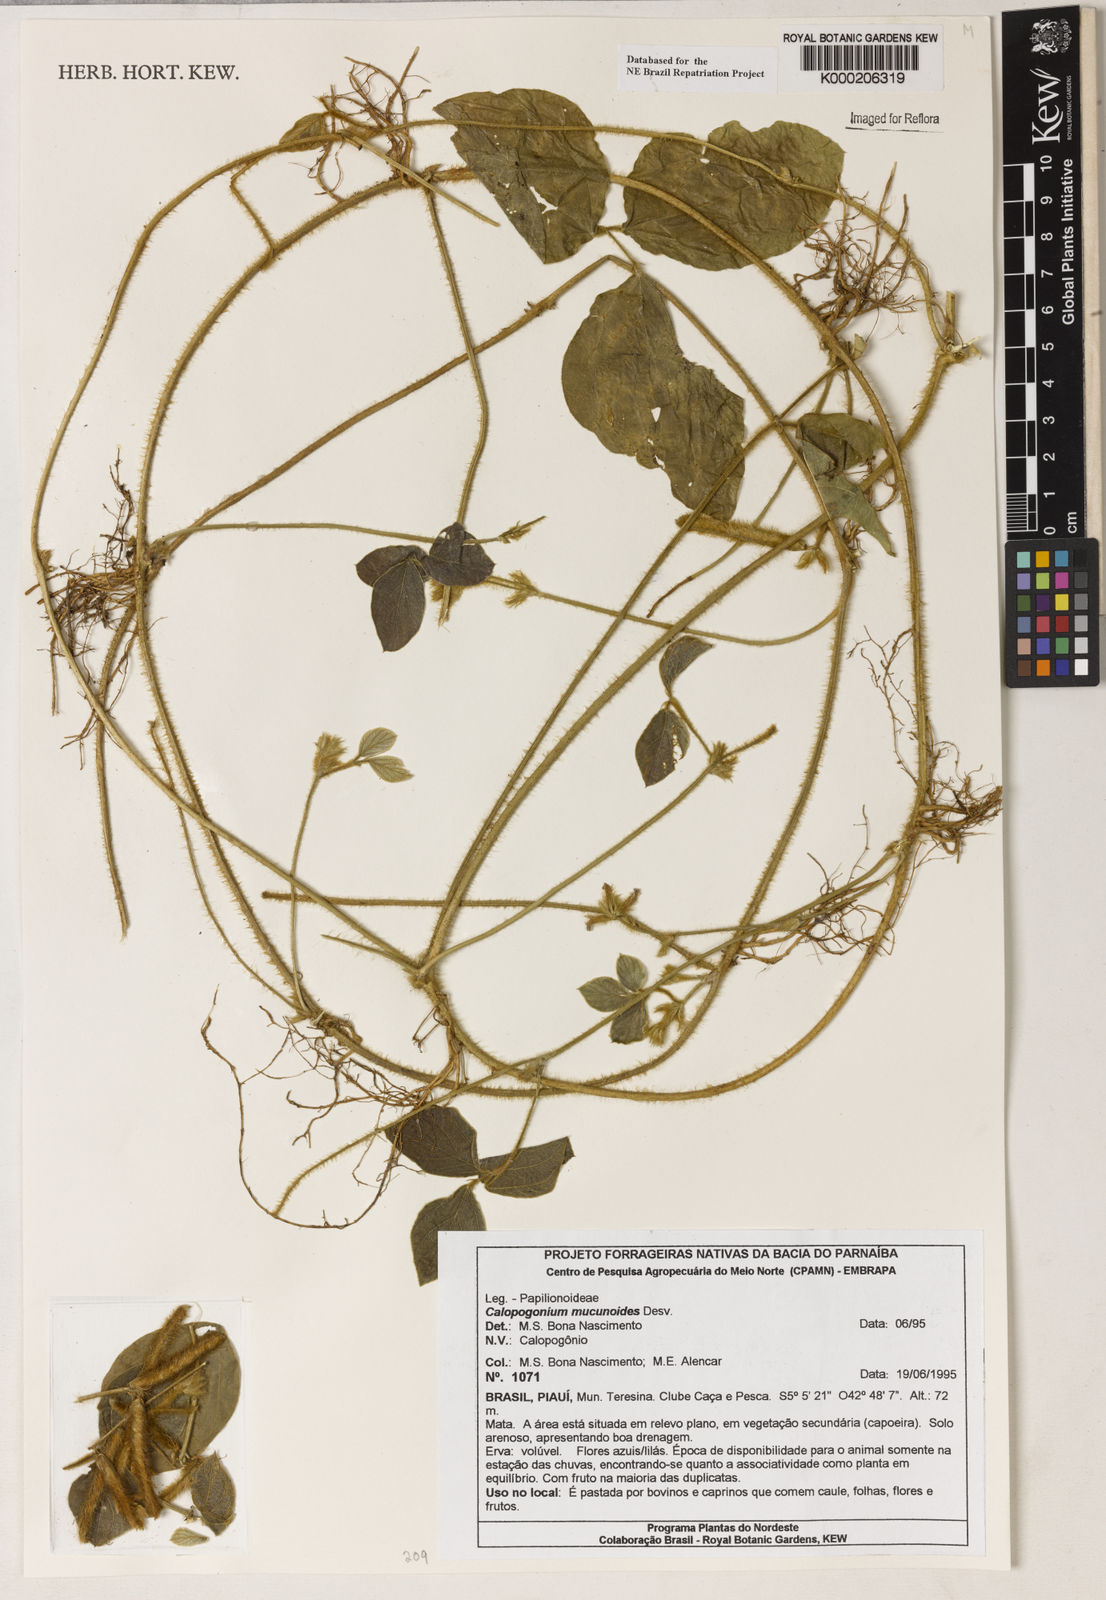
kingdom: Plantae
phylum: Tracheophyta
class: Magnoliopsida
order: Fabales
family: Fabaceae
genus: Calopogonium
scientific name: Calopogonium mucunoides
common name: Calopo
